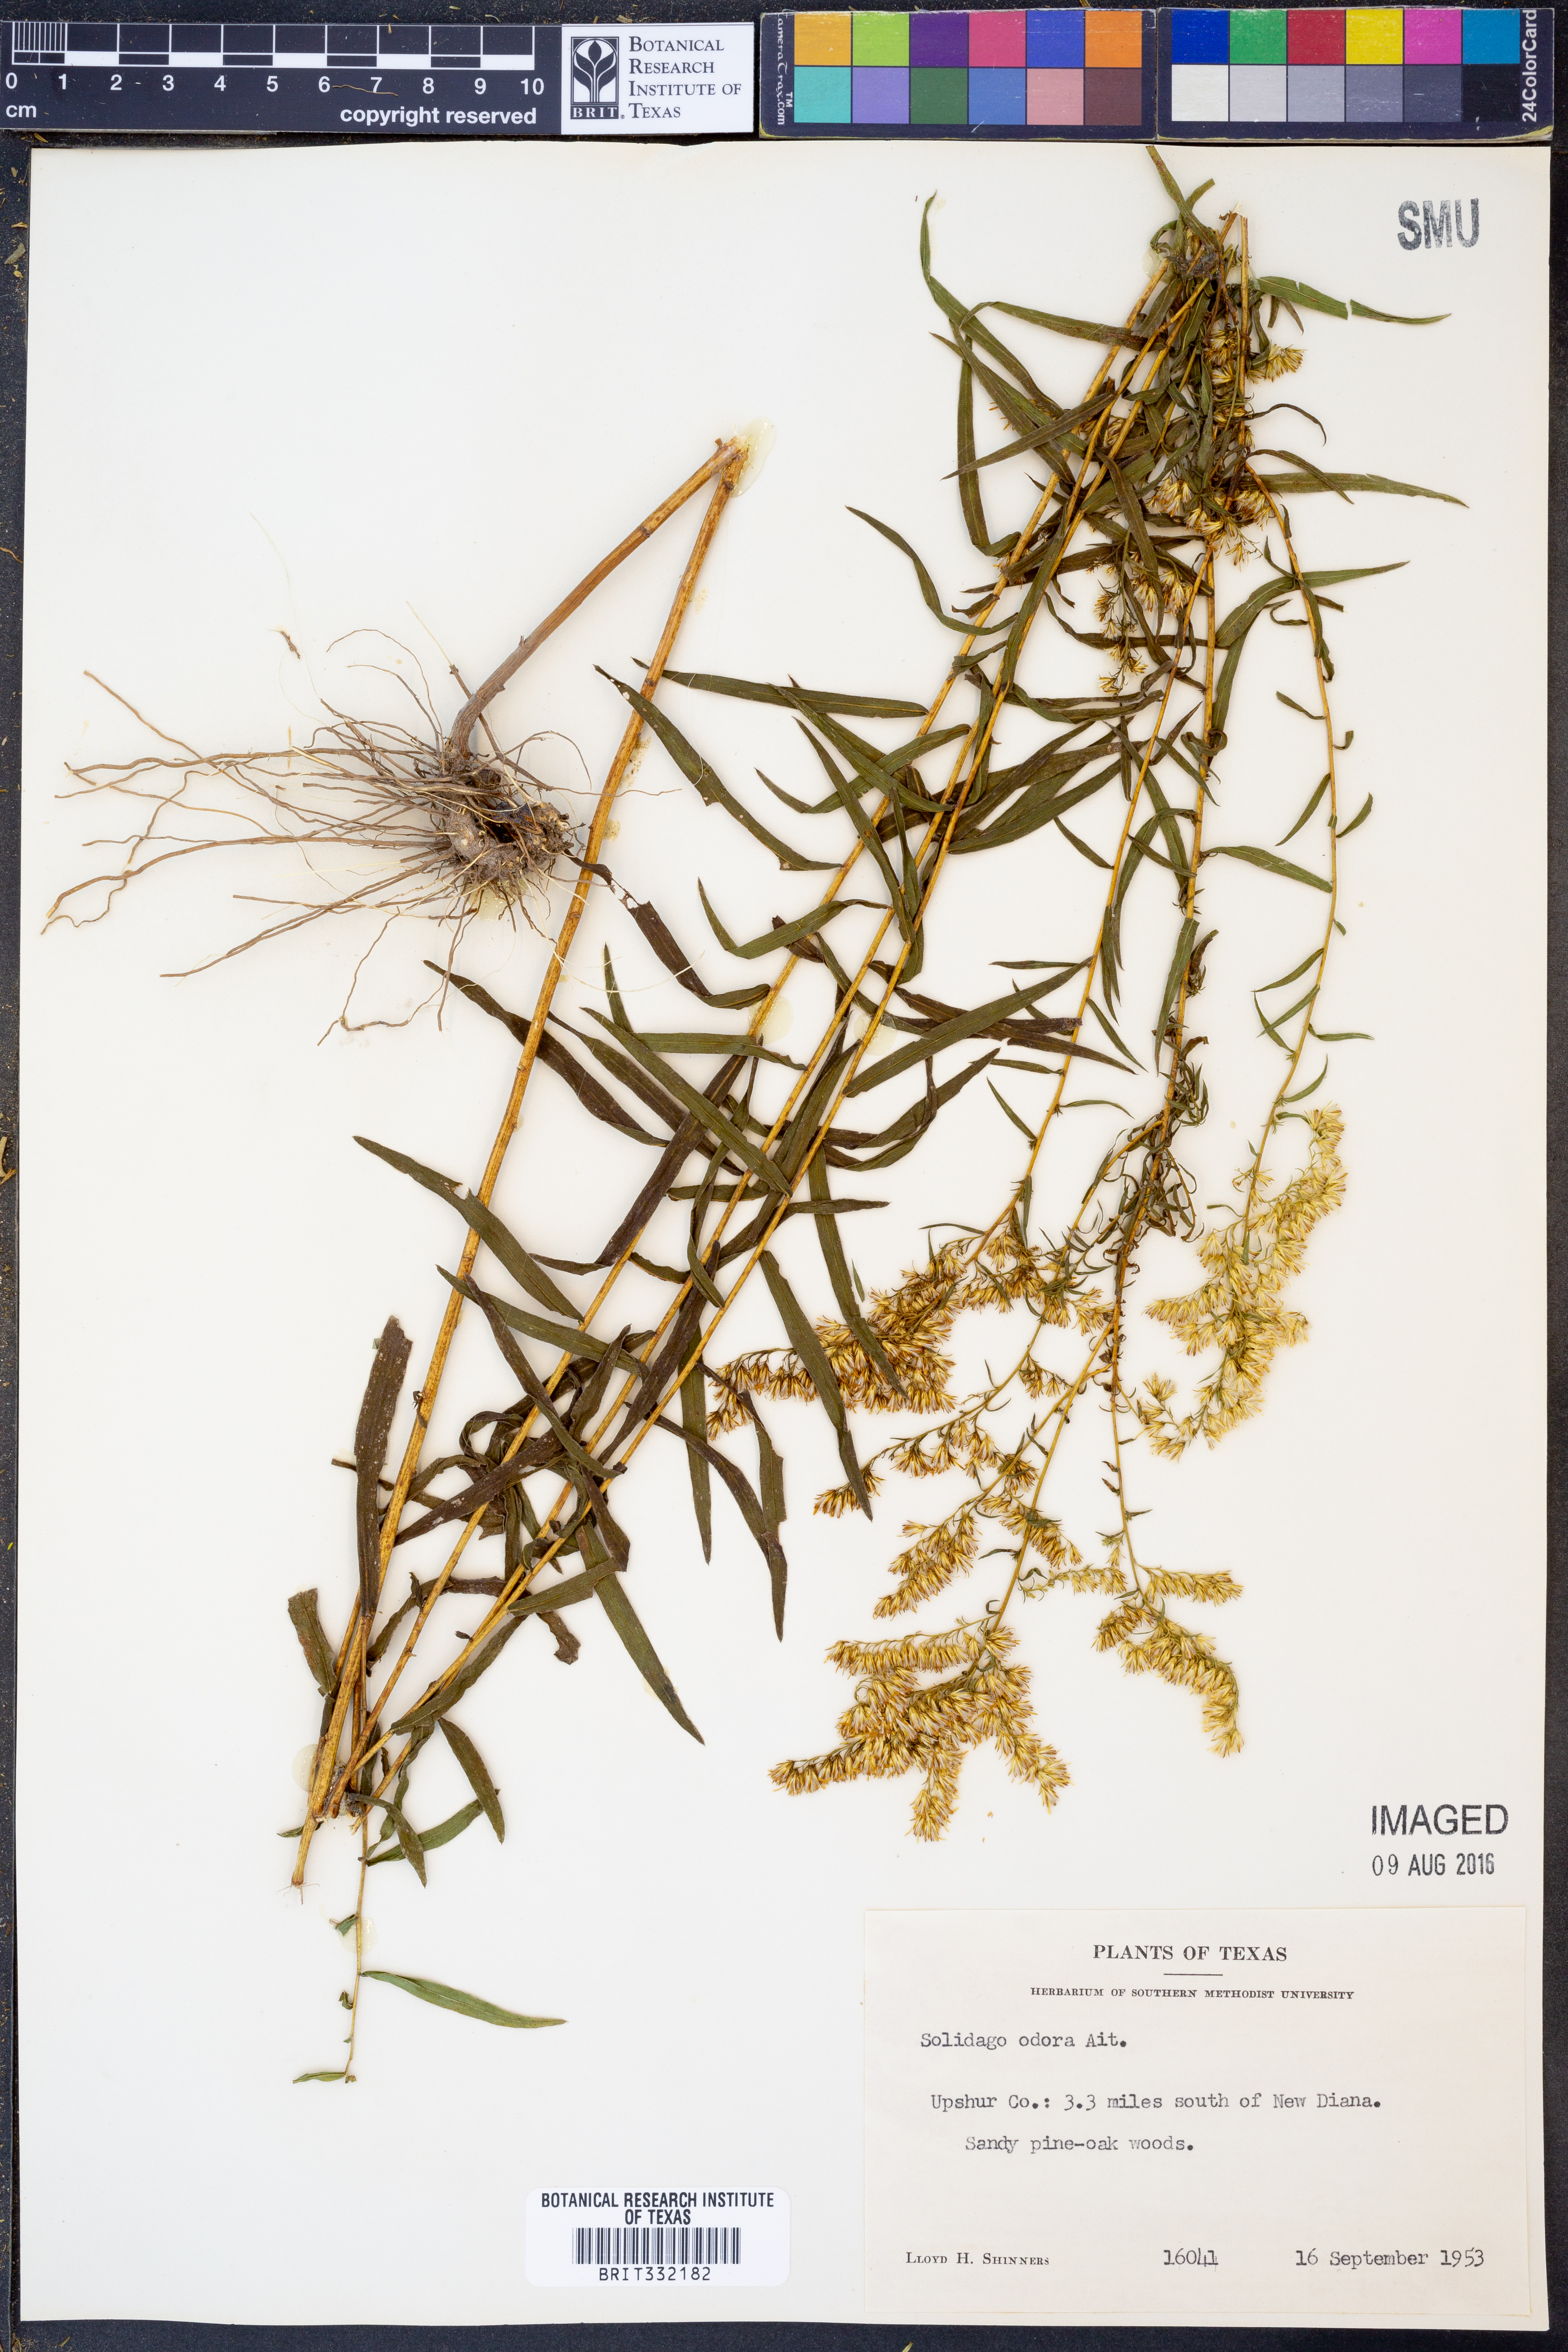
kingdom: Plantae
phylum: Tracheophyta
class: Magnoliopsida
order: Asterales
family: Asteraceae
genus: Solidago
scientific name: Solidago odora
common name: Anise-scented goldenrod
